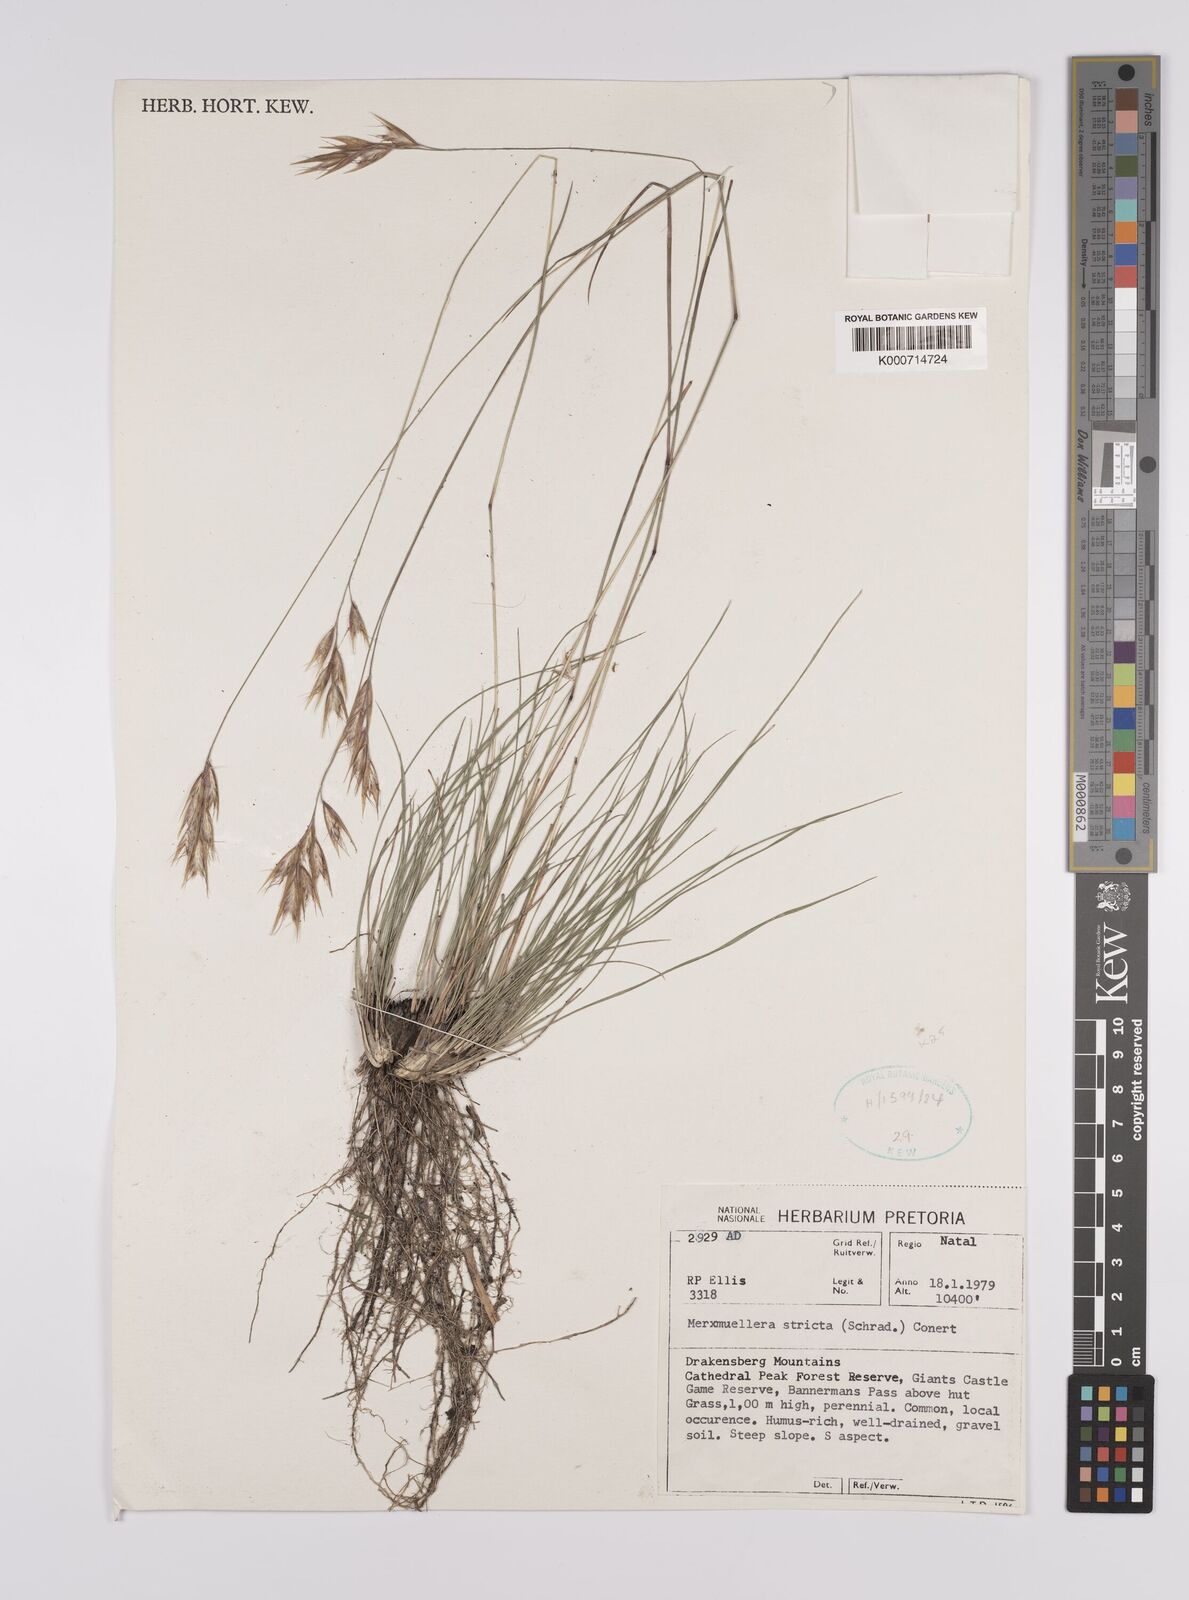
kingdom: Plantae
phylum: Tracheophyta
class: Liliopsida
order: Poales
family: Poaceae
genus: Rytidosperma
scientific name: Rytidosperma
